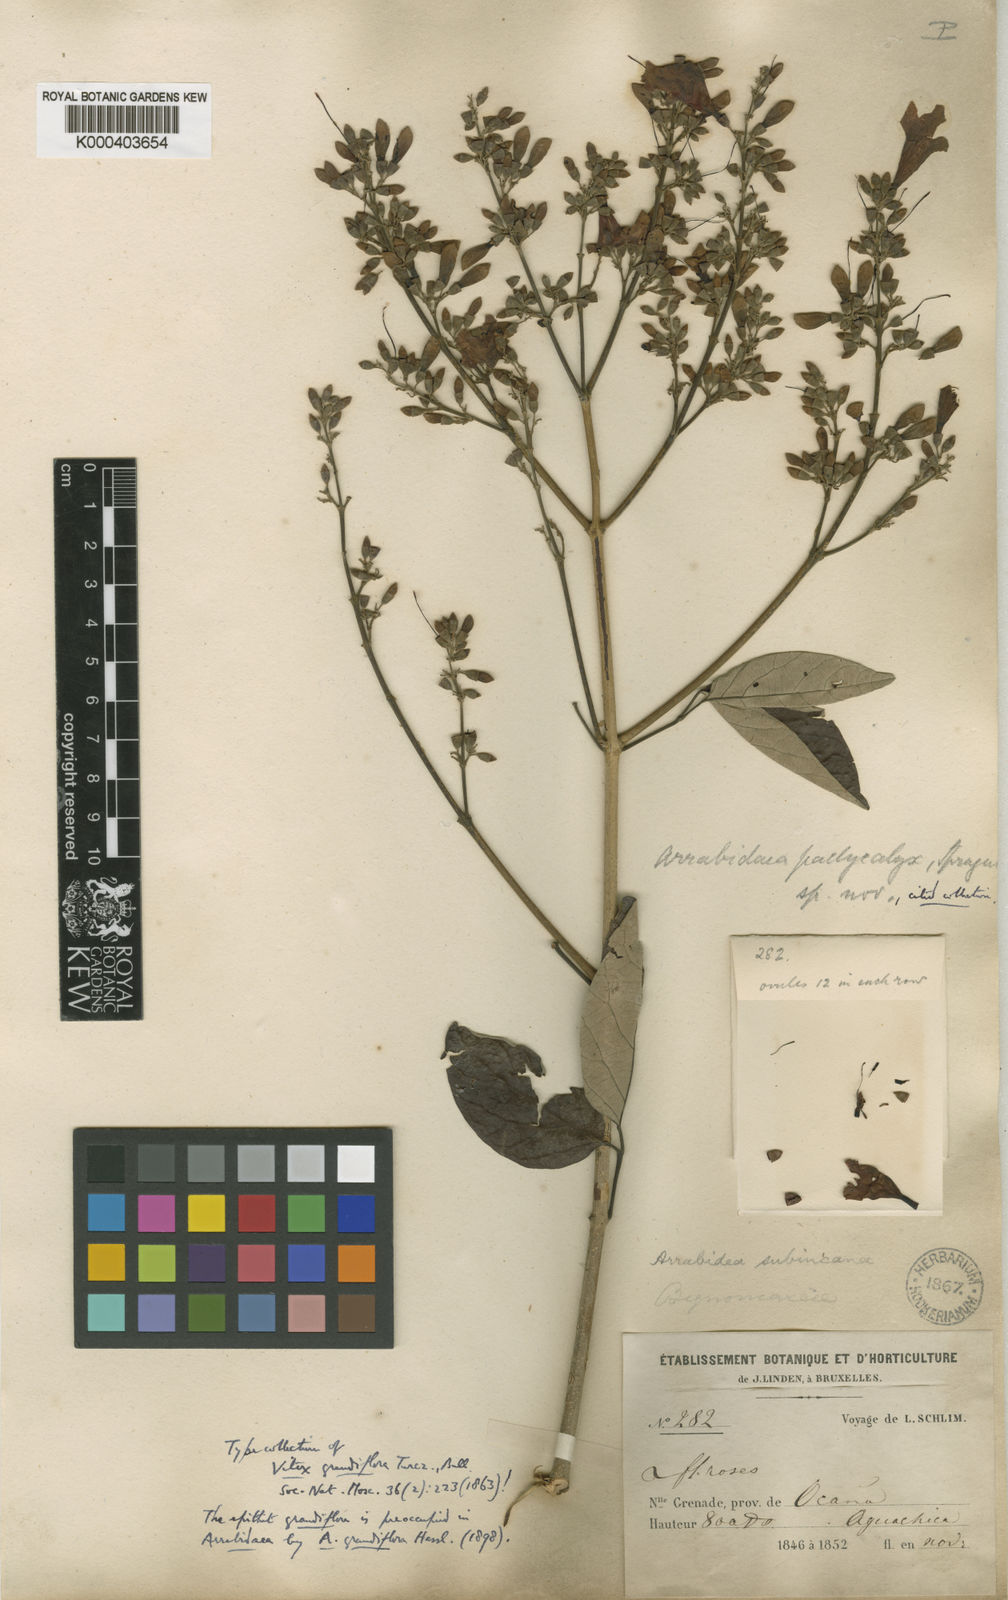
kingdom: Plantae
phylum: Tracheophyta
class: Magnoliopsida
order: Lamiales
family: Bignoniaceae
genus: Fridericia
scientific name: Fridericia candicans
